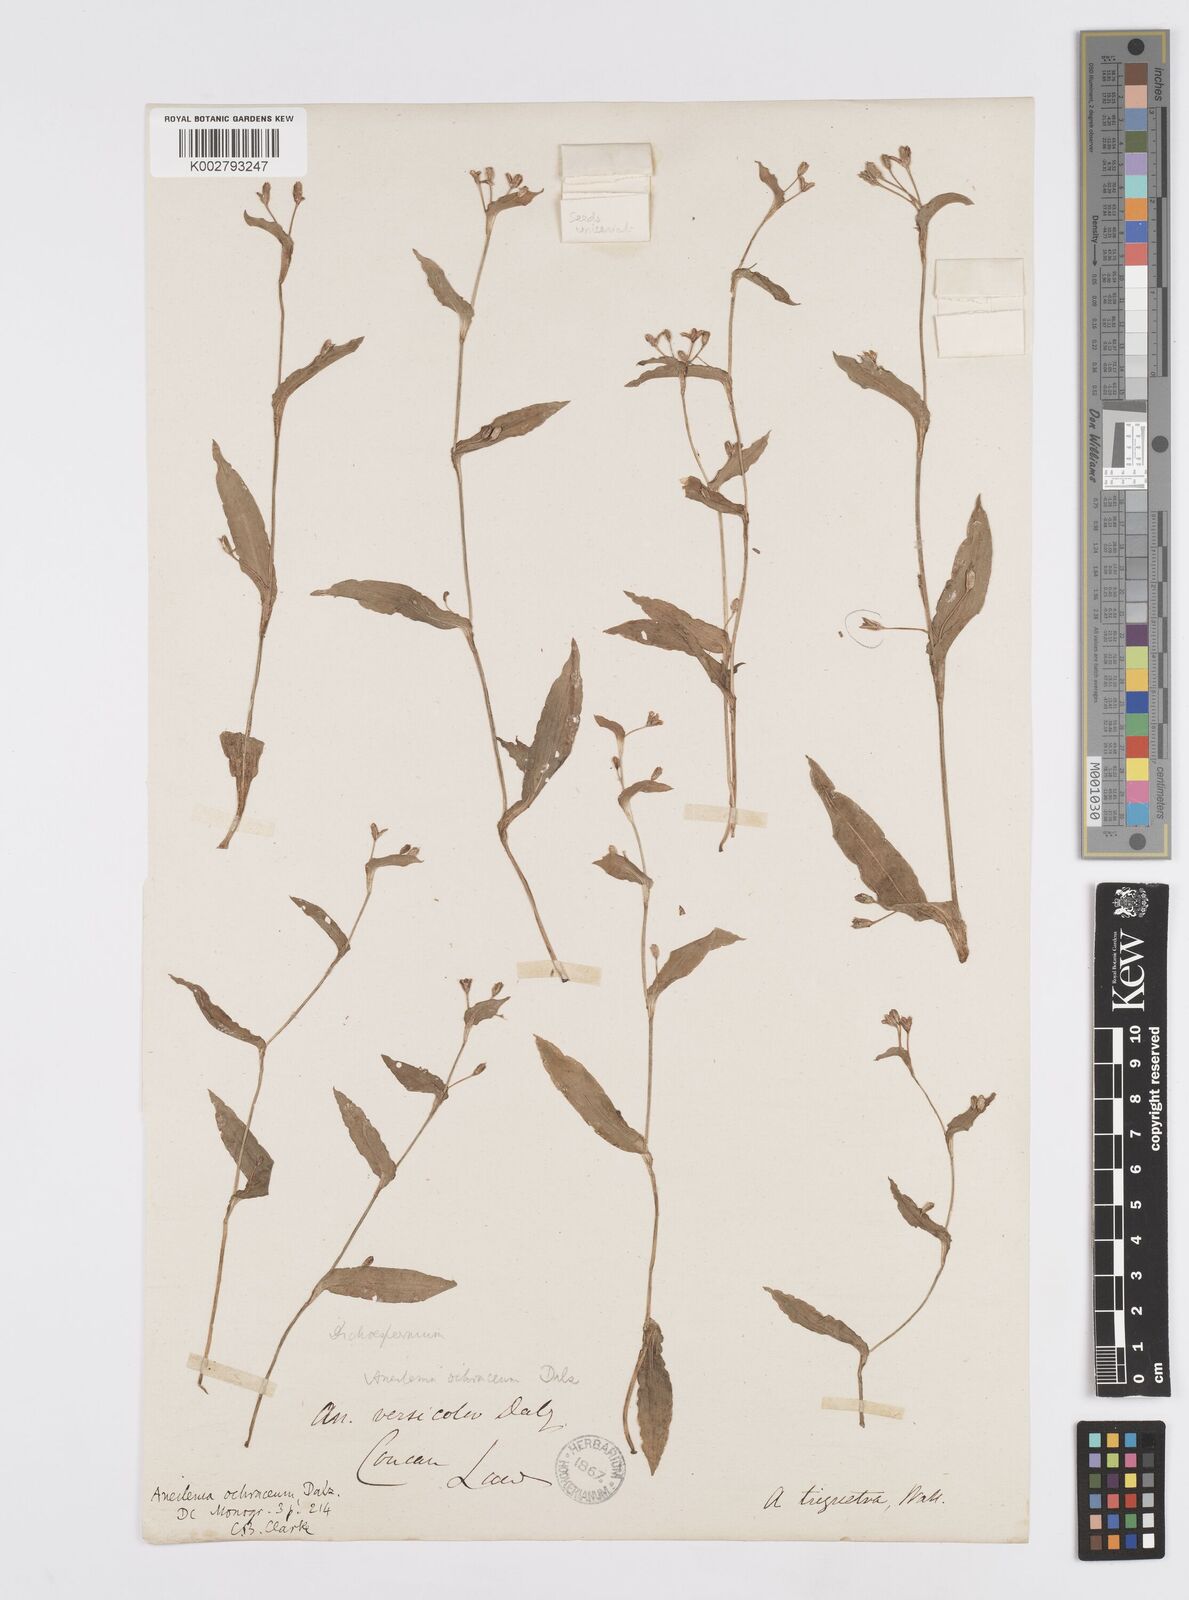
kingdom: Plantae
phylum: Tracheophyta
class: Liliopsida
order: Commelinales
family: Commelinaceae
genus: Murdannia
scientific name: Murdannia
